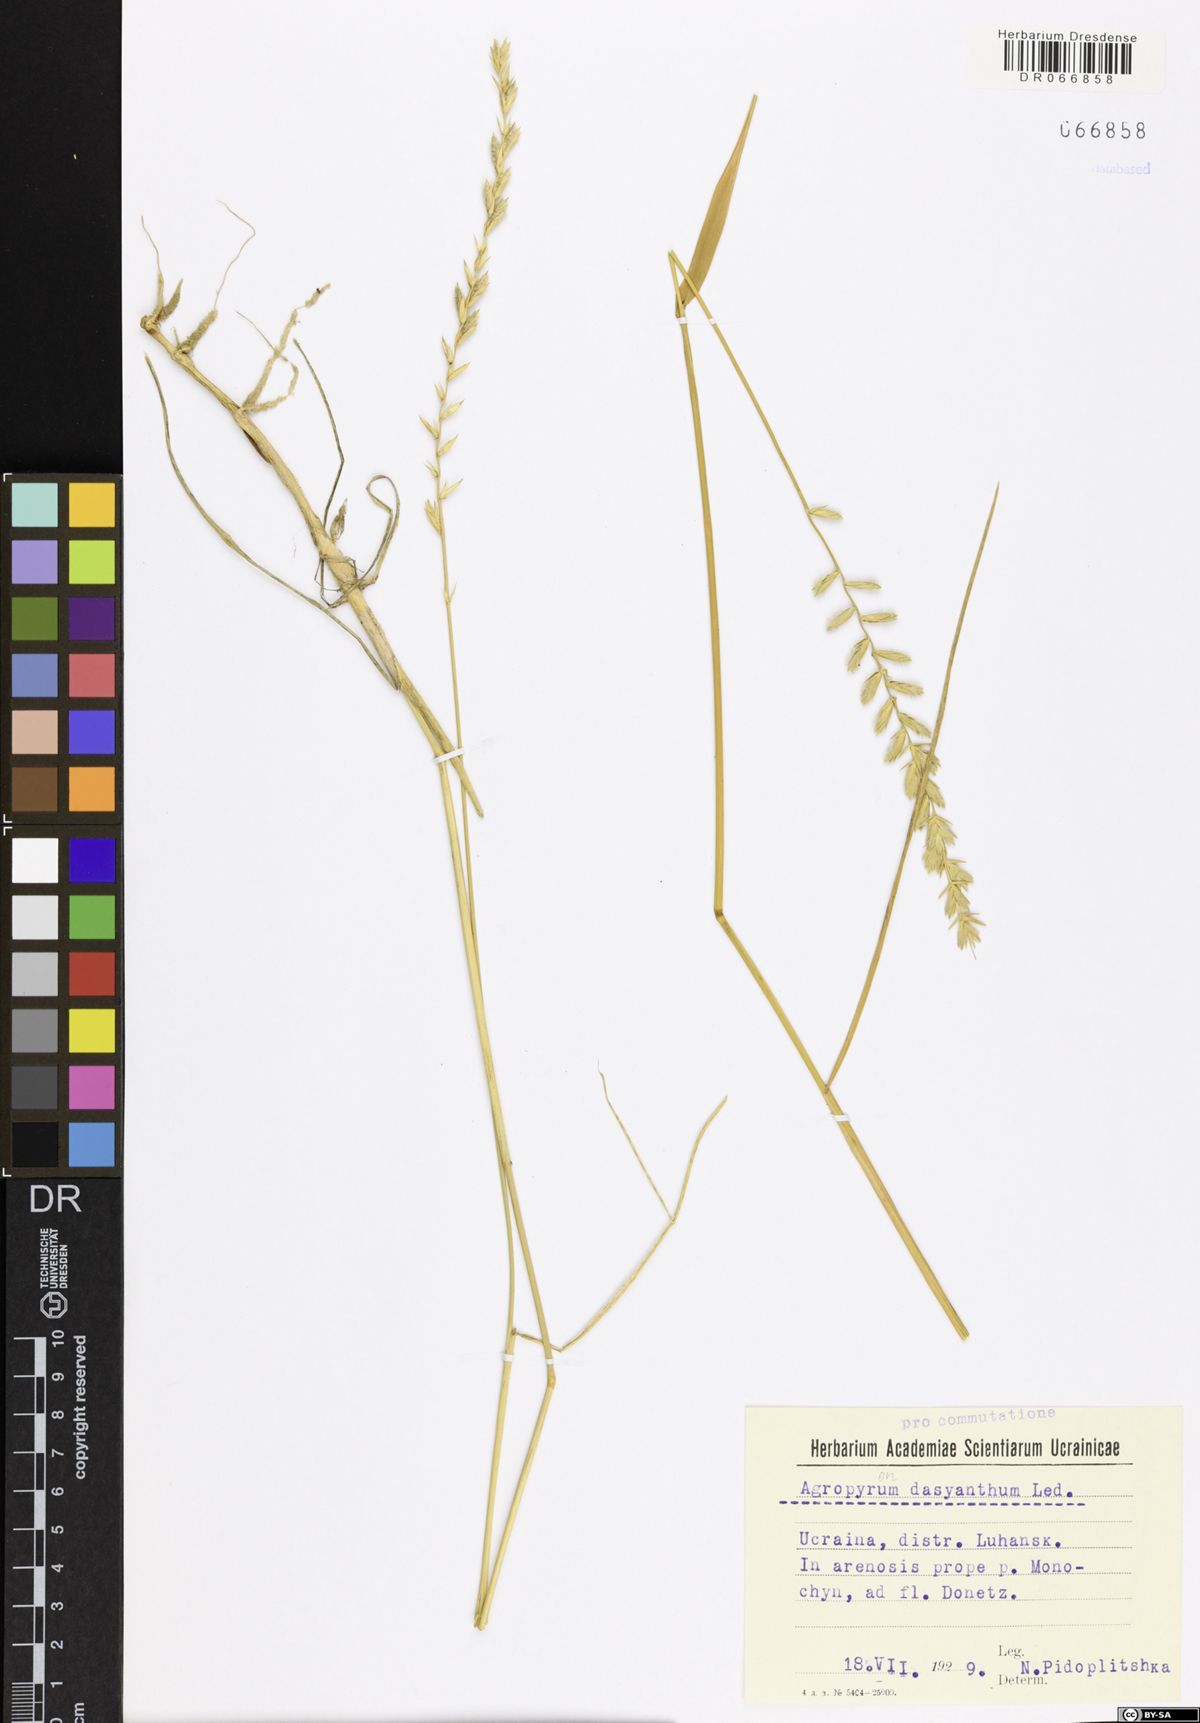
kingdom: Plantae
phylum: Tracheophyta
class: Liliopsida
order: Poales
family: Poaceae
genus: Agropyron
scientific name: Agropyron dasyanthum
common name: Edge flowered crested wheatgrass
